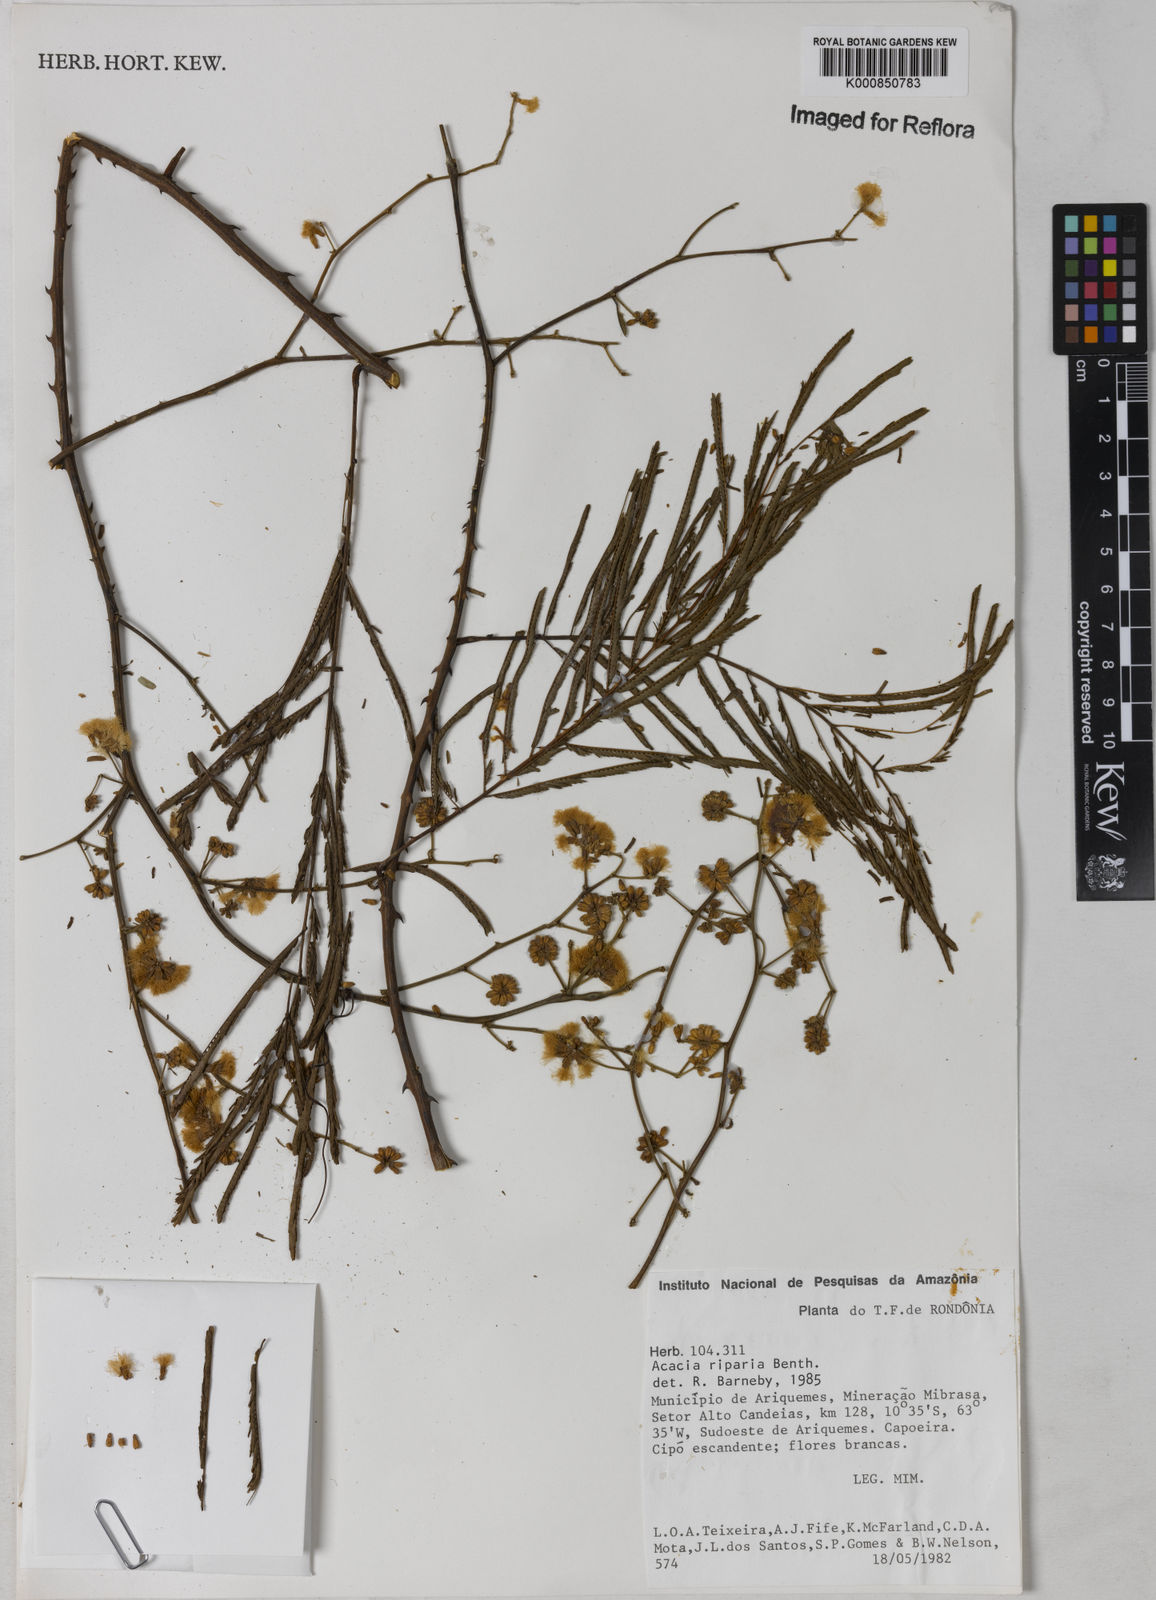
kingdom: Plantae
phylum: Tracheophyta
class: Magnoliopsida
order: Fabales
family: Fabaceae
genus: Senegalia
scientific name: Senegalia riparia
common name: Catch-and-keep
